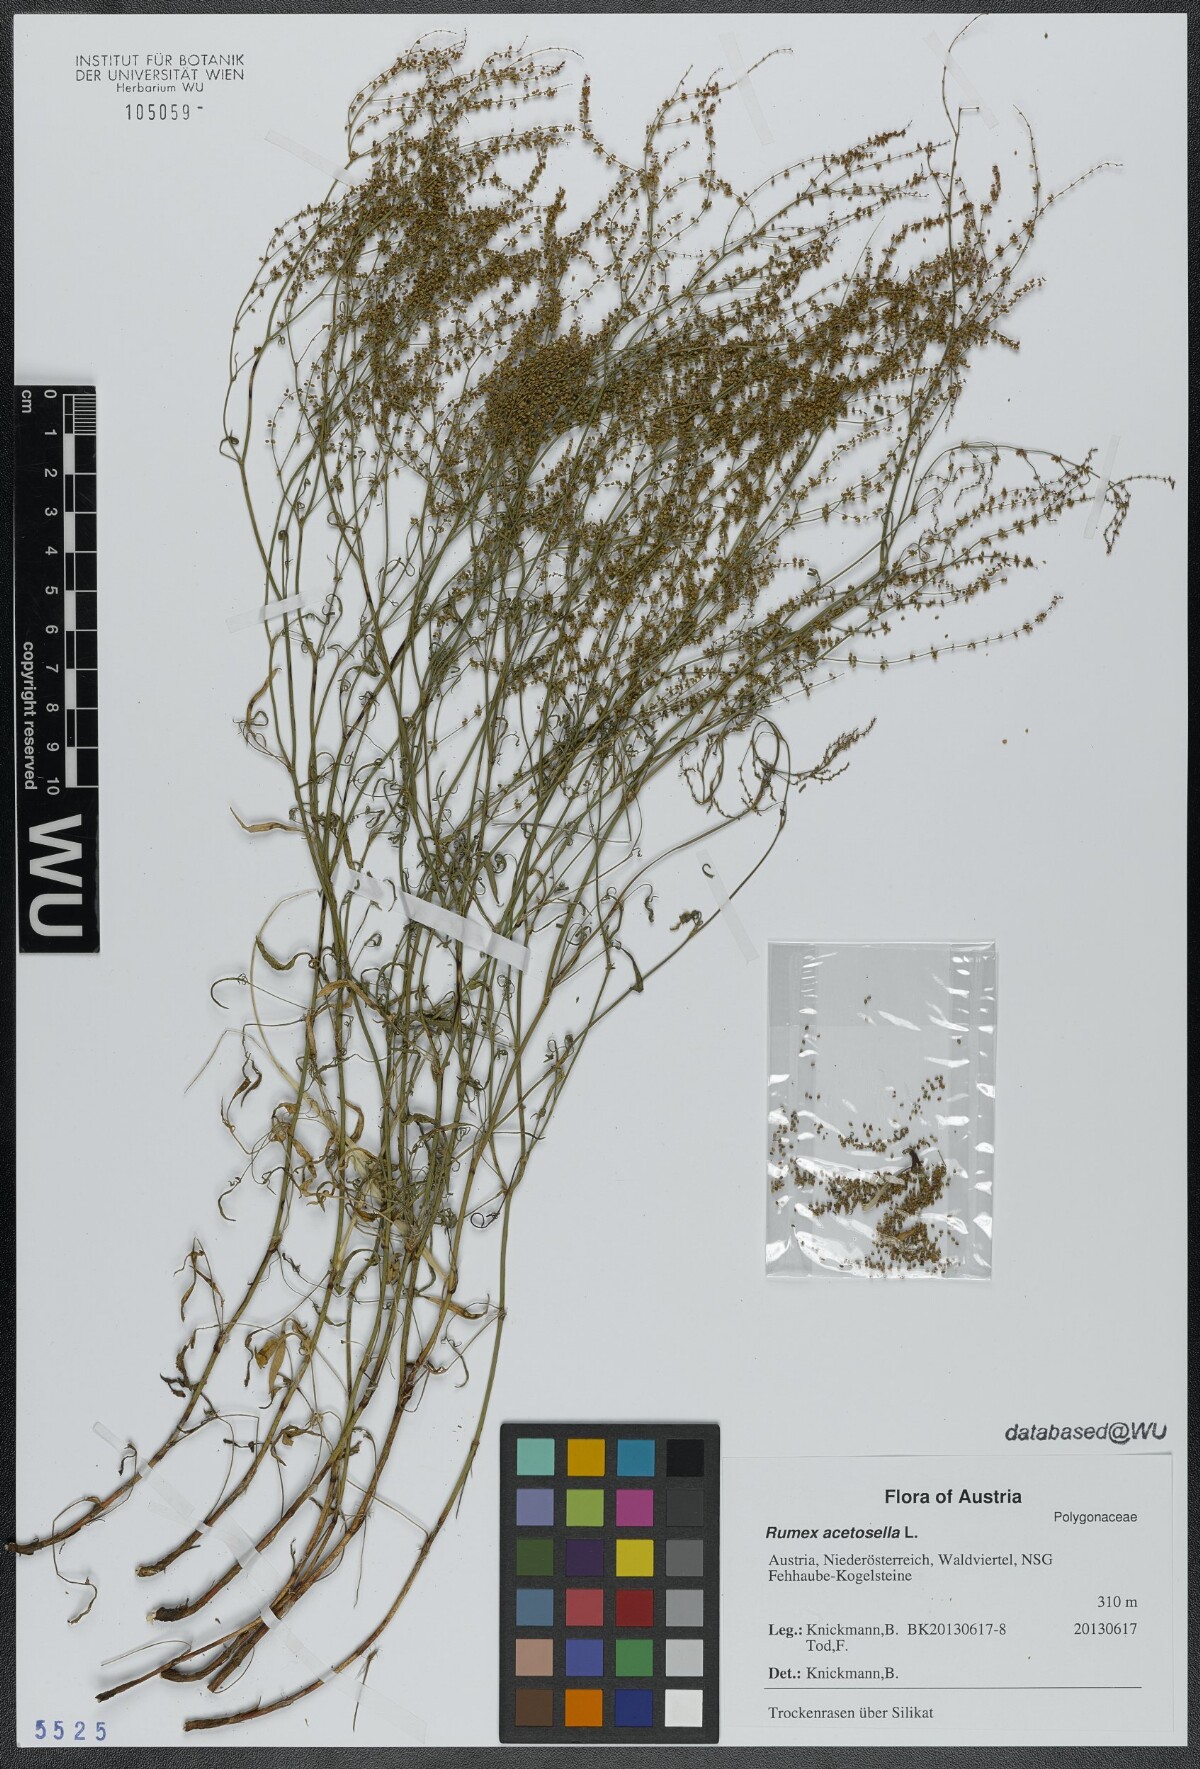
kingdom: Plantae
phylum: Tracheophyta
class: Magnoliopsida
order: Caryophyllales
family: Polygonaceae
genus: Rumex
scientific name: Rumex acetosella
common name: Common sheep sorrel
